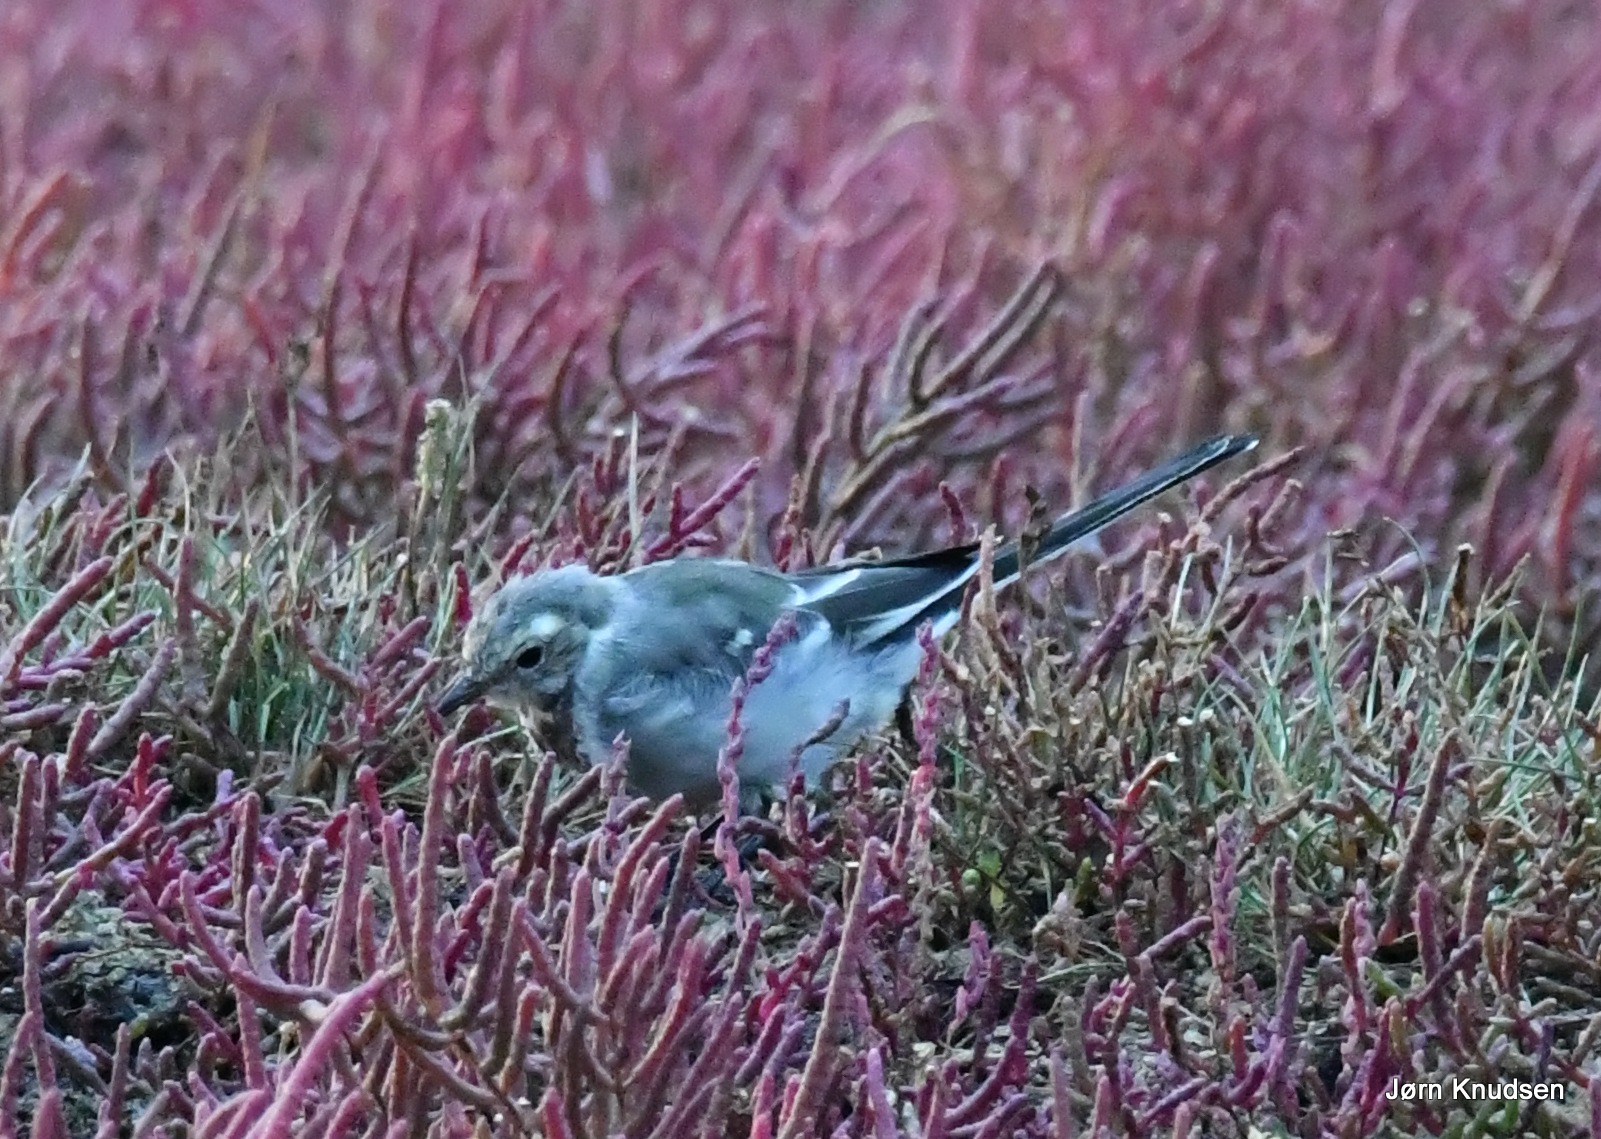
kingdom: Animalia
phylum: Chordata
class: Aves
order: Passeriformes
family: Motacillidae
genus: Motacilla
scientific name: Motacilla alba
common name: Hvid vipstjert
